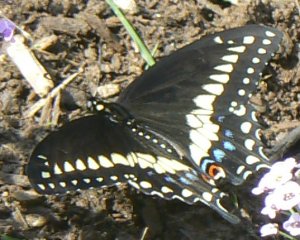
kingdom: Animalia
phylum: Arthropoda
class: Insecta
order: Lepidoptera
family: Papilionidae
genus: Papilio
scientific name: Papilio polyxenes
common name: Black Swallowtail
